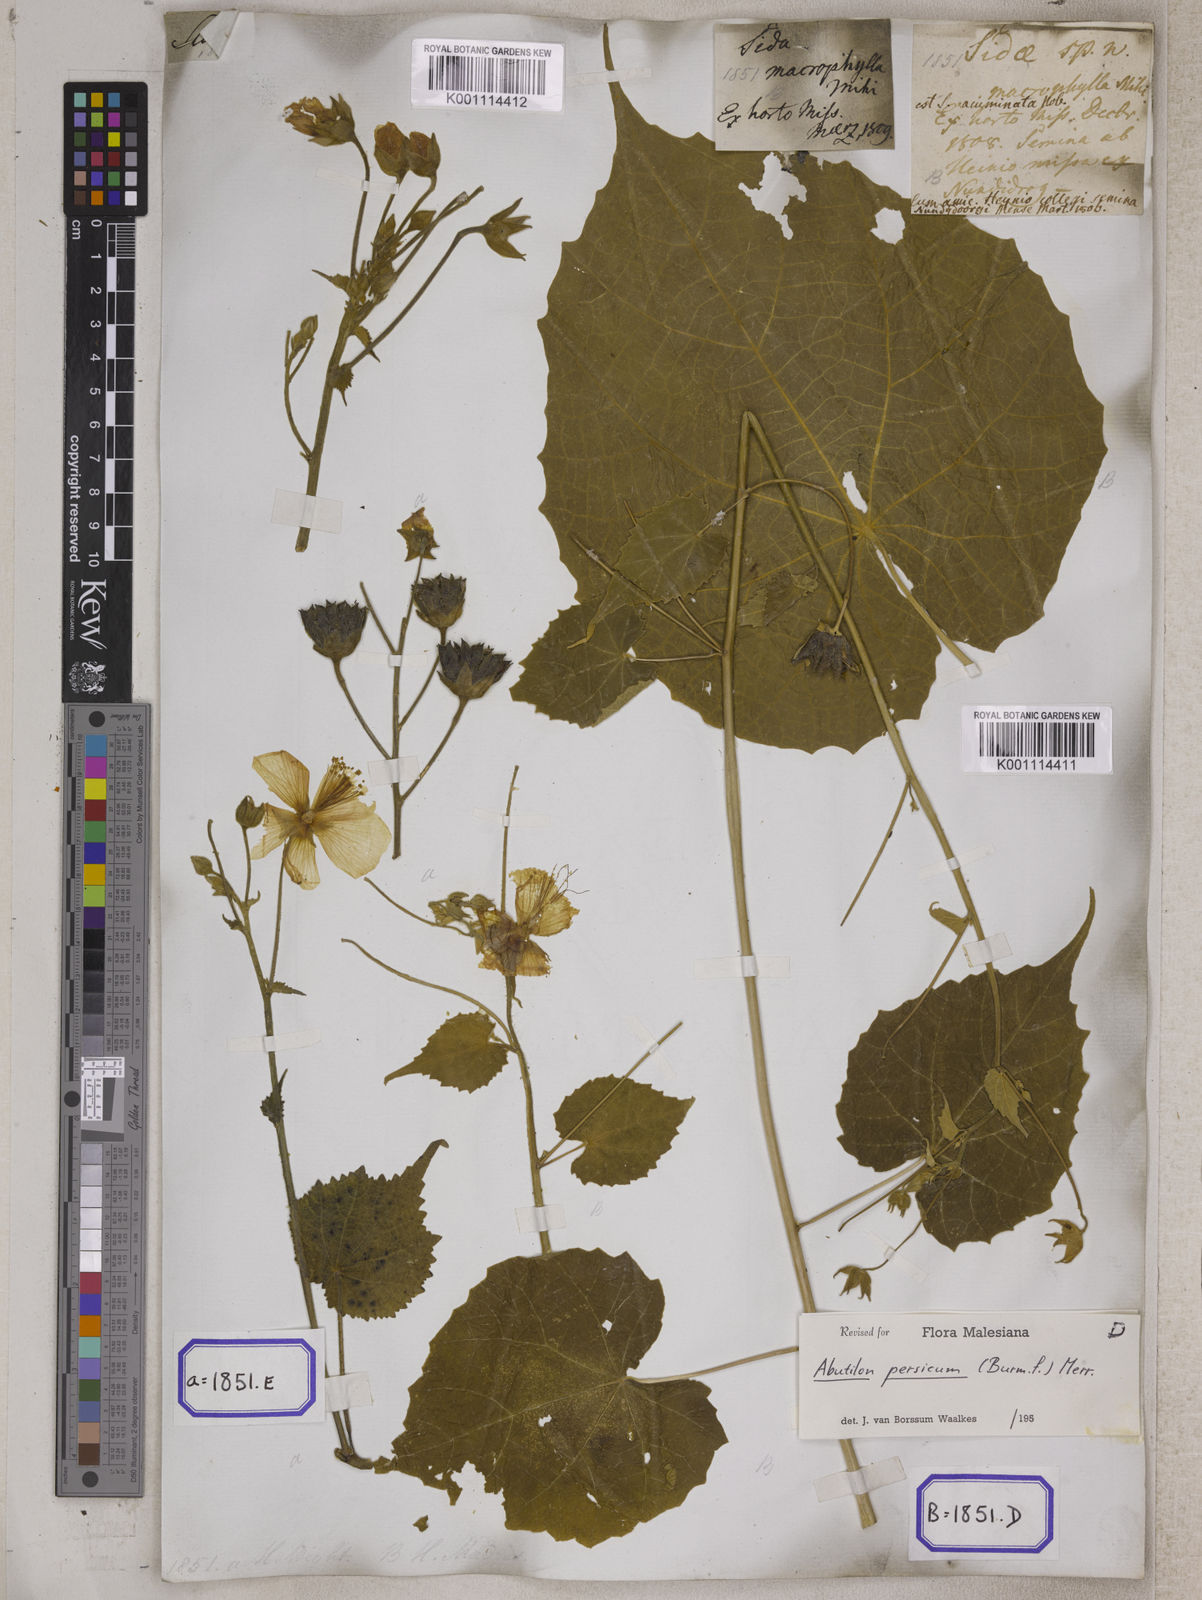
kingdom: Plantae
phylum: Tracheophyta
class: Magnoliopsida
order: Malvales
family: Malvaceae
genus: Abutilon
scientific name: Abutilon persicum
